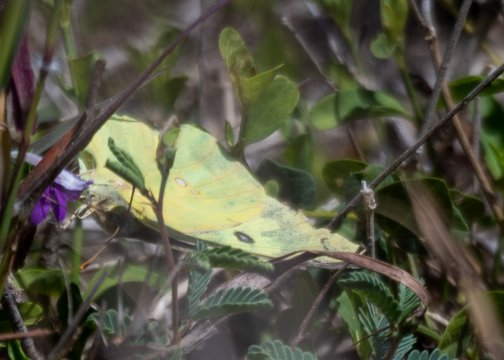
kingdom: Animalia
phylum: Arthropoda
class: Insecta
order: Lepidoptera
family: Pieridae
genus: Zerene
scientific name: Zerene cesonia
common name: Southern Dogface
